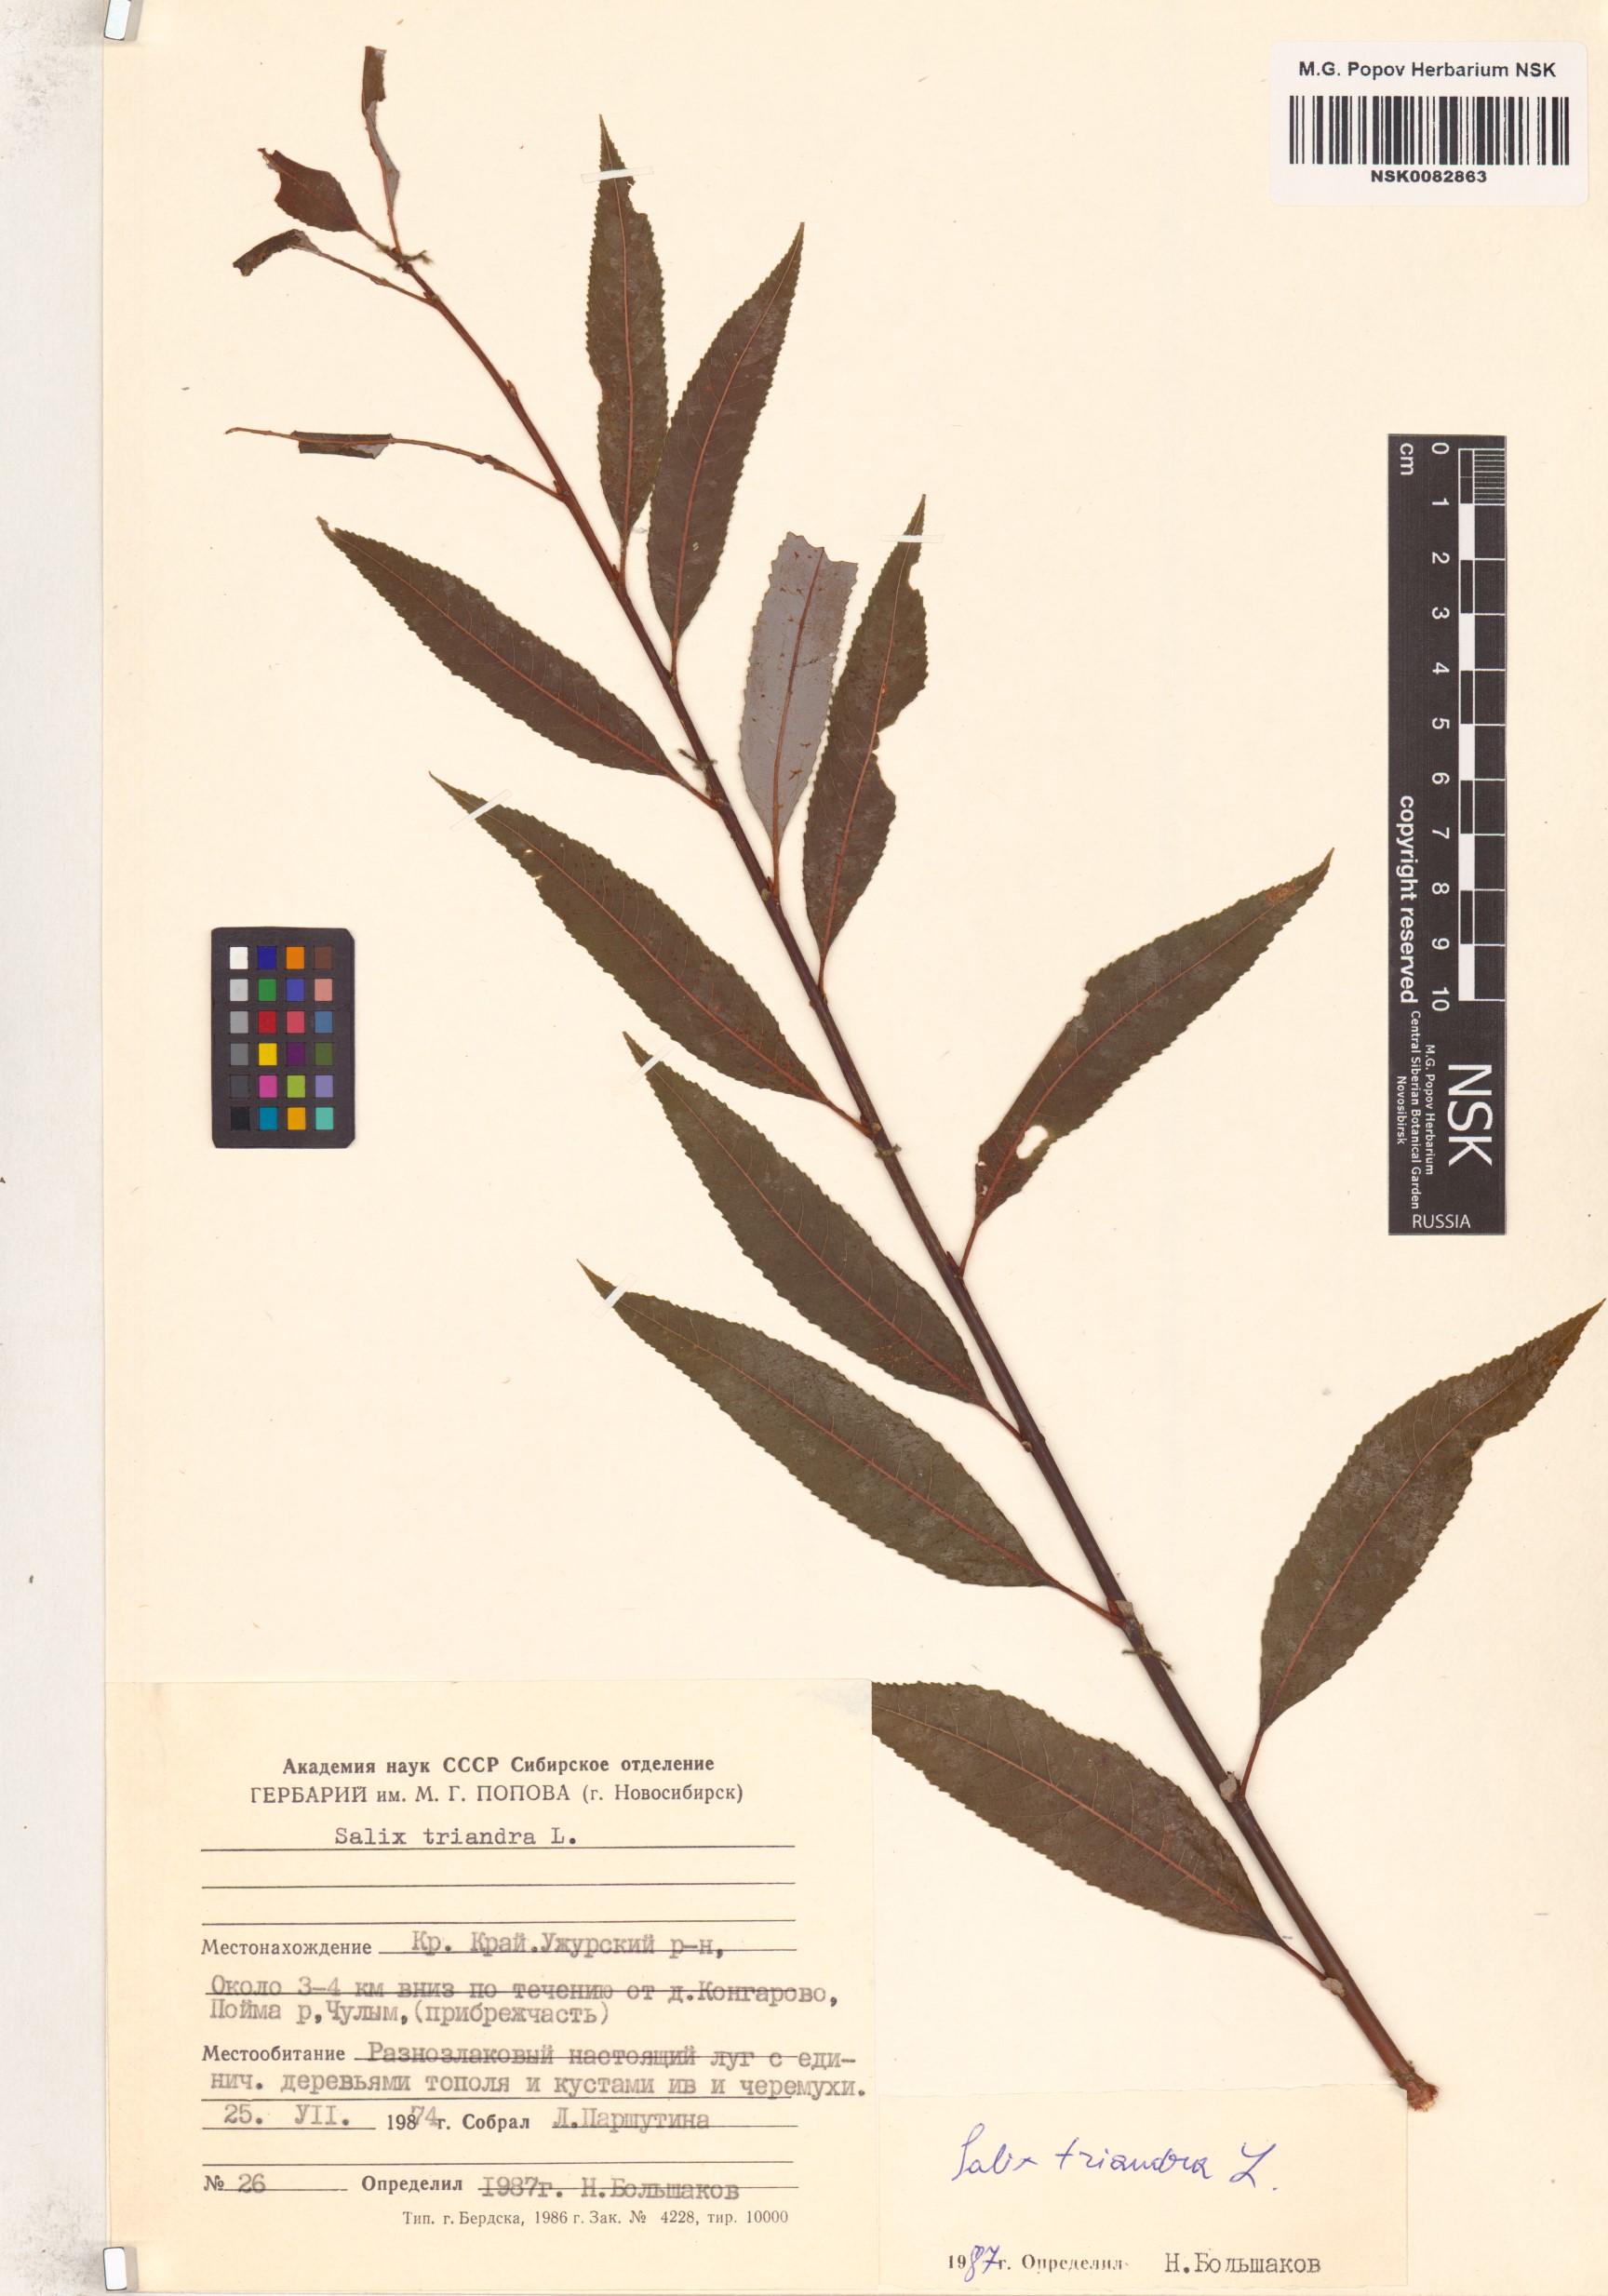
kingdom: Plantae
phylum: Tracheophyta
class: Magnoliopsida
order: Malpighiales
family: Salicaceae
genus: Salix
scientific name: Salix triandra
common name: Almond willow
